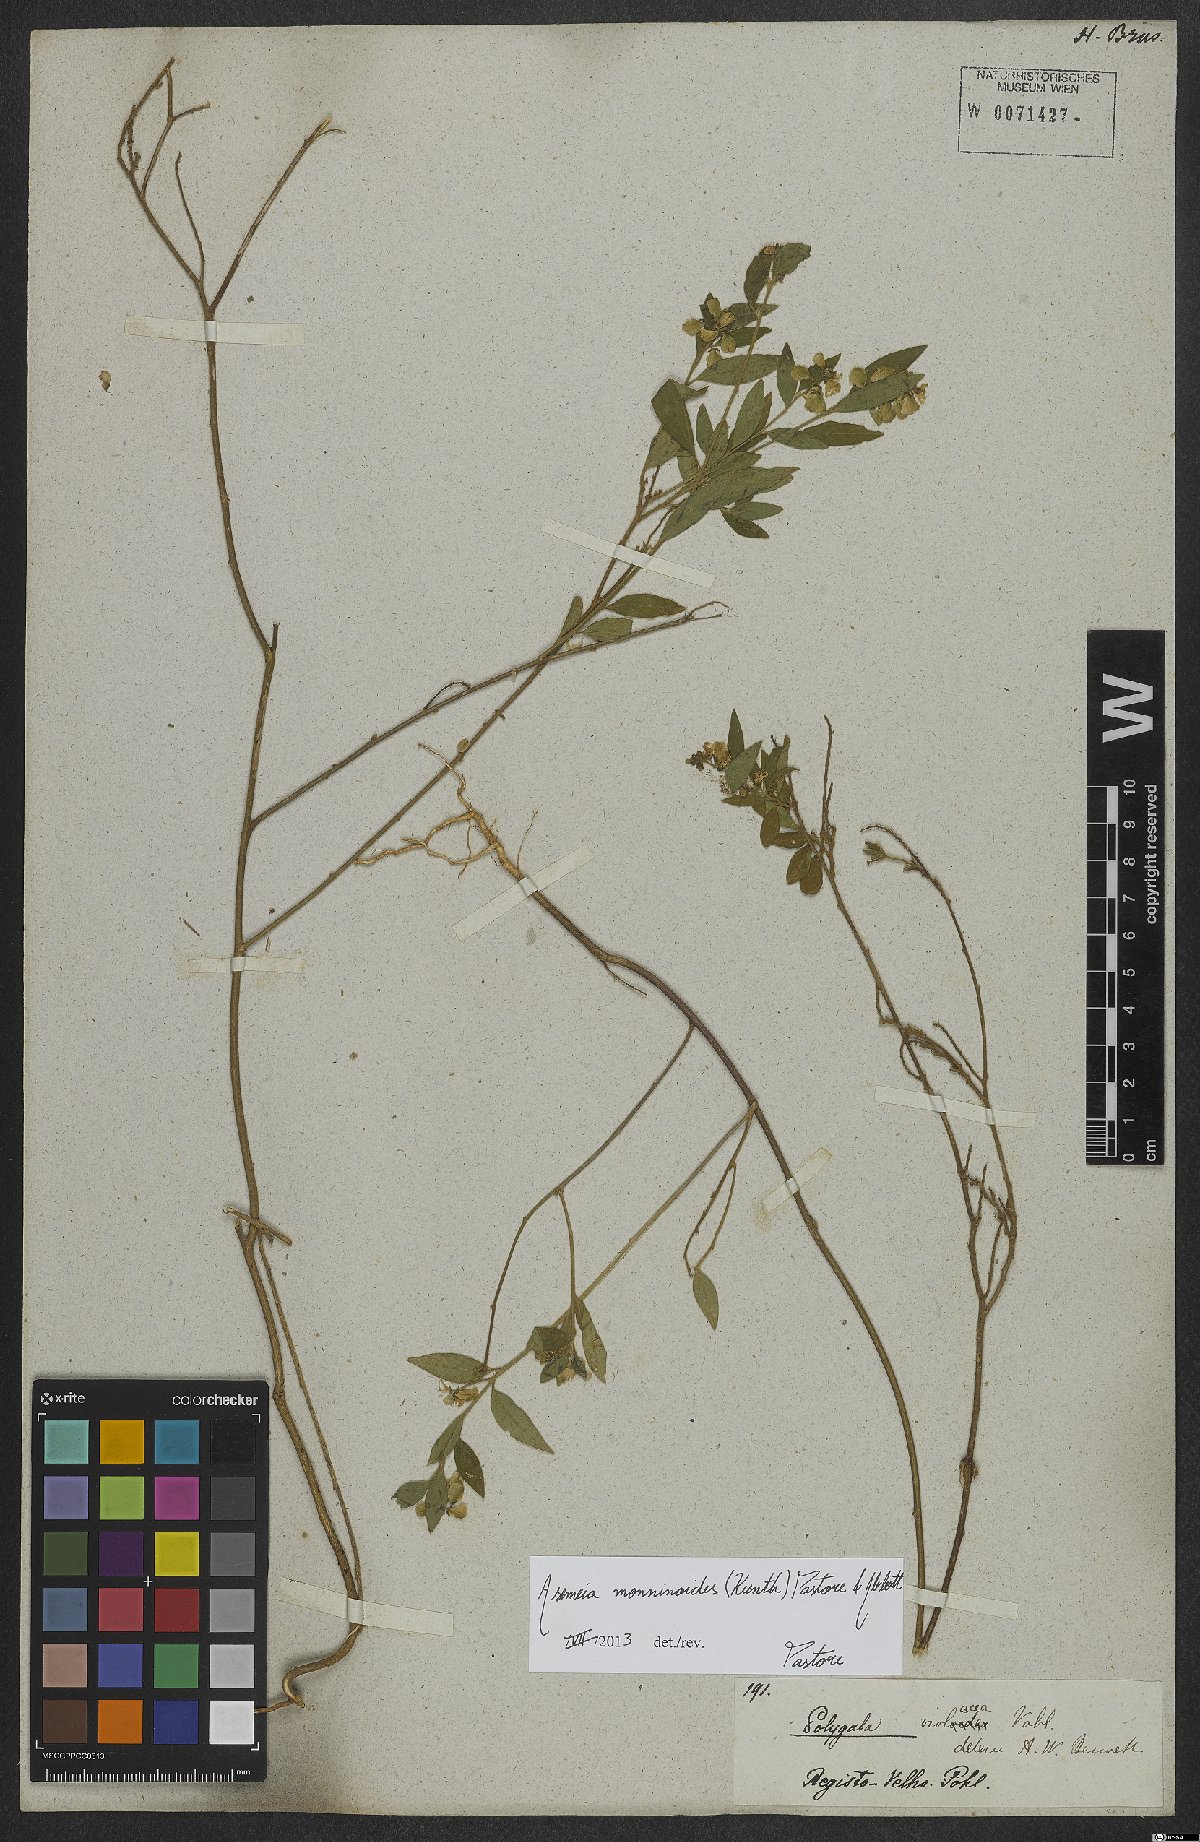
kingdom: Plantae
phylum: Tracheophyta
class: Magnoliopsida
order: Fabales
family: Polygalaceae
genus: Asemeia
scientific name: Asemeia monninoides
